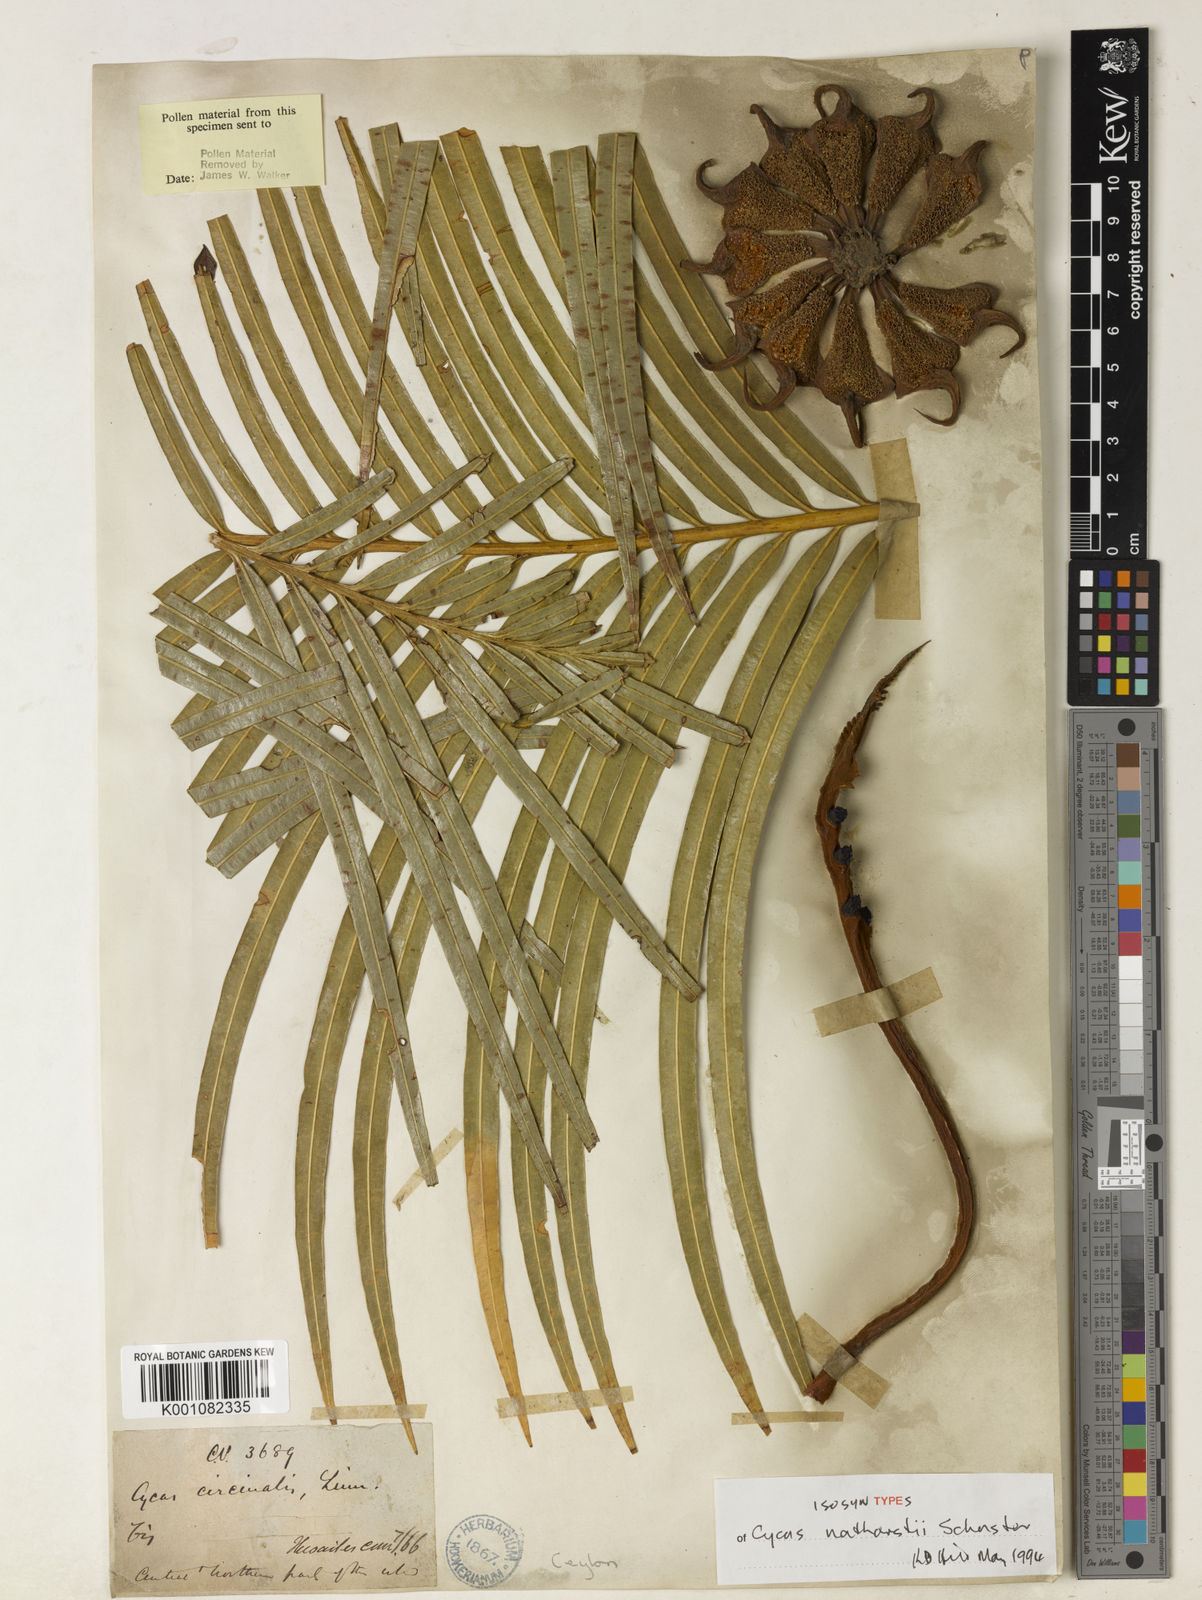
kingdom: Plantae
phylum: Tracheophyta
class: Cycadopsida
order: Cycadales
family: Cycadaceae
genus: Cycas
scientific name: Cycas nathorstii
